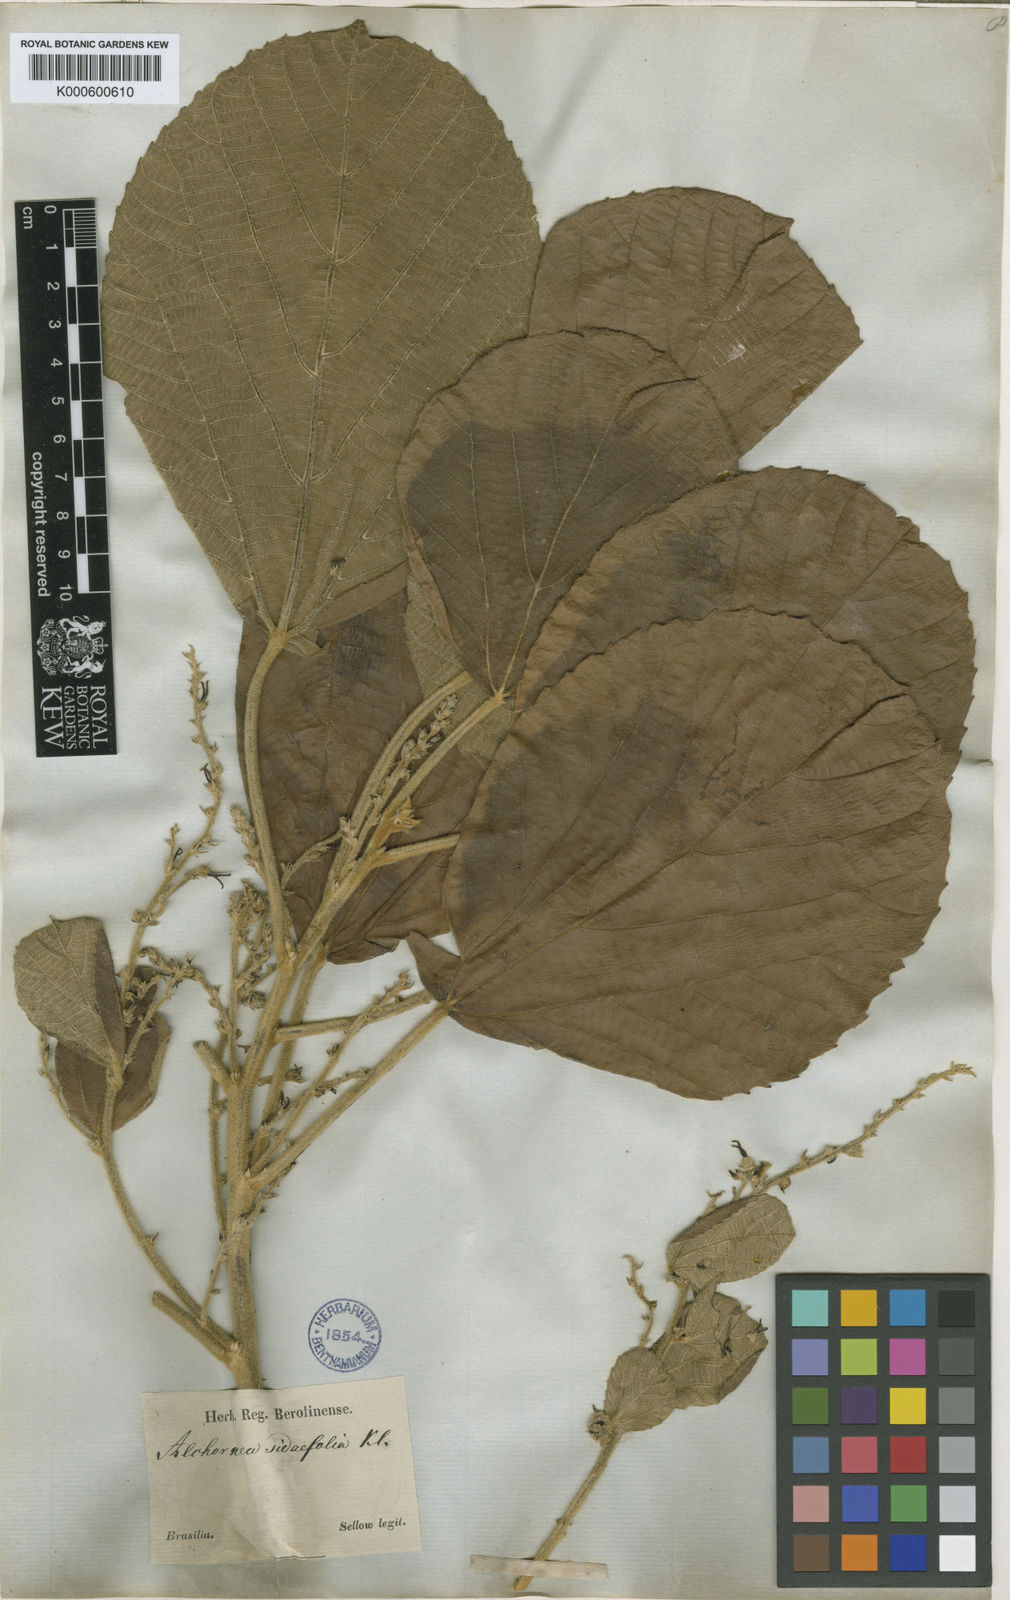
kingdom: Plantae
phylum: Tracheophyta
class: Magnoliopsida
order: Malpighiales
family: Euphorbiaceae
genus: Alchornea
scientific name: Alchornea
